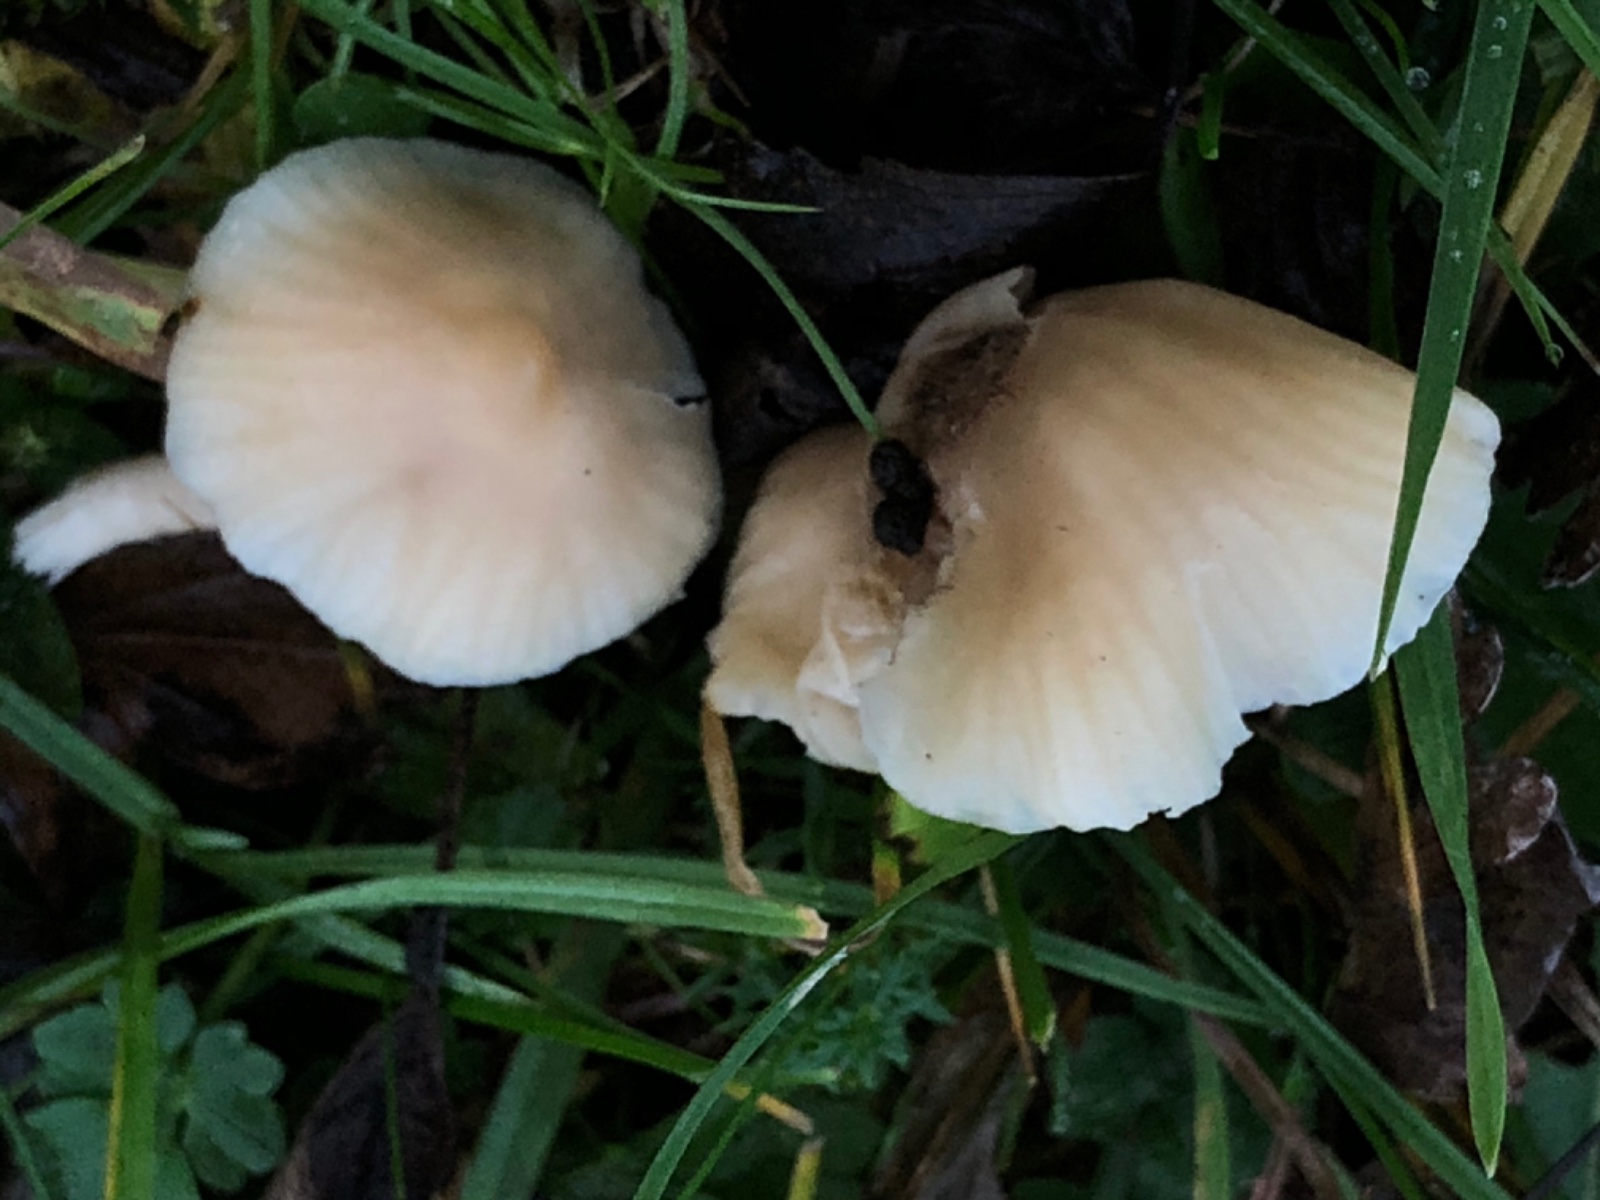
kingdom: Fungi
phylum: Basidiomycota
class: Agaricomycetes
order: Agaricales
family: Hygrophoraceae
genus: Cuphophyllus
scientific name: Cuphophyllus
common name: vokshat
